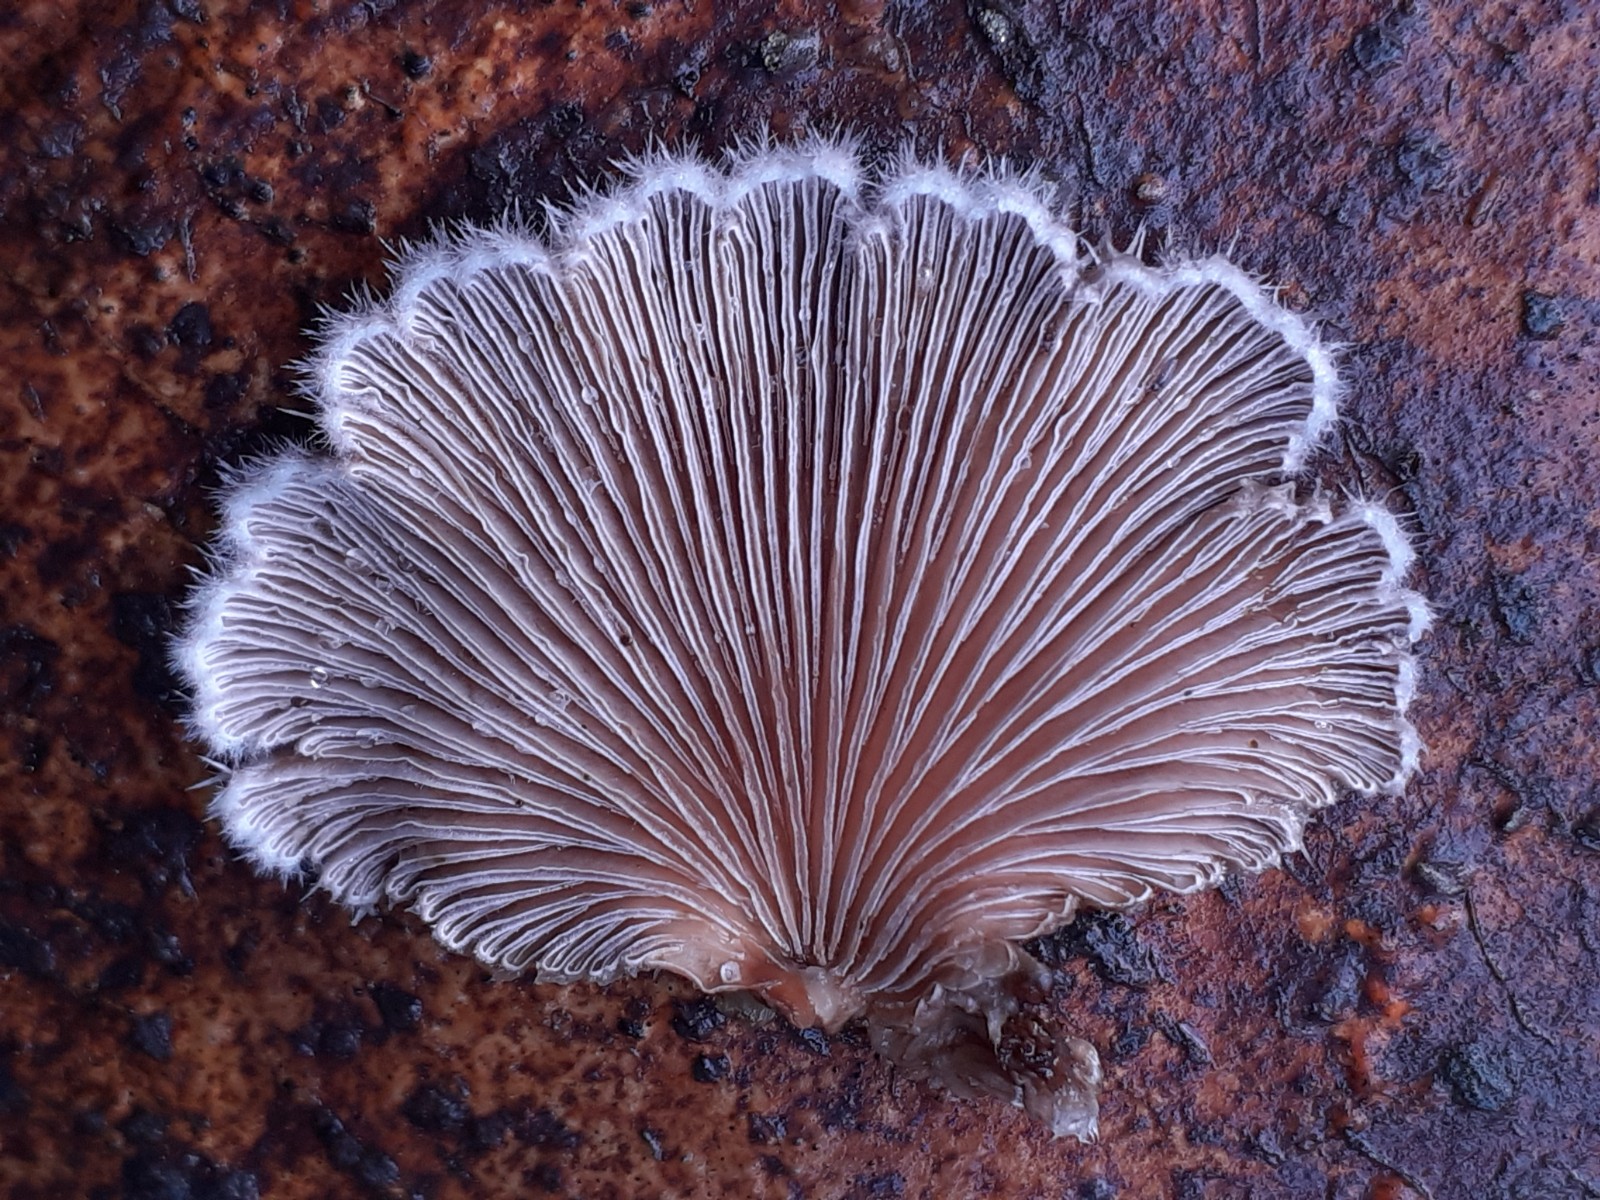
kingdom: Fungi
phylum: Basidiomycota
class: Agaricomycetes
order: Agaricales
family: Schizophyllaceae
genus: Schizophyllum
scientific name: Schizophyllum commune
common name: kløvblad
